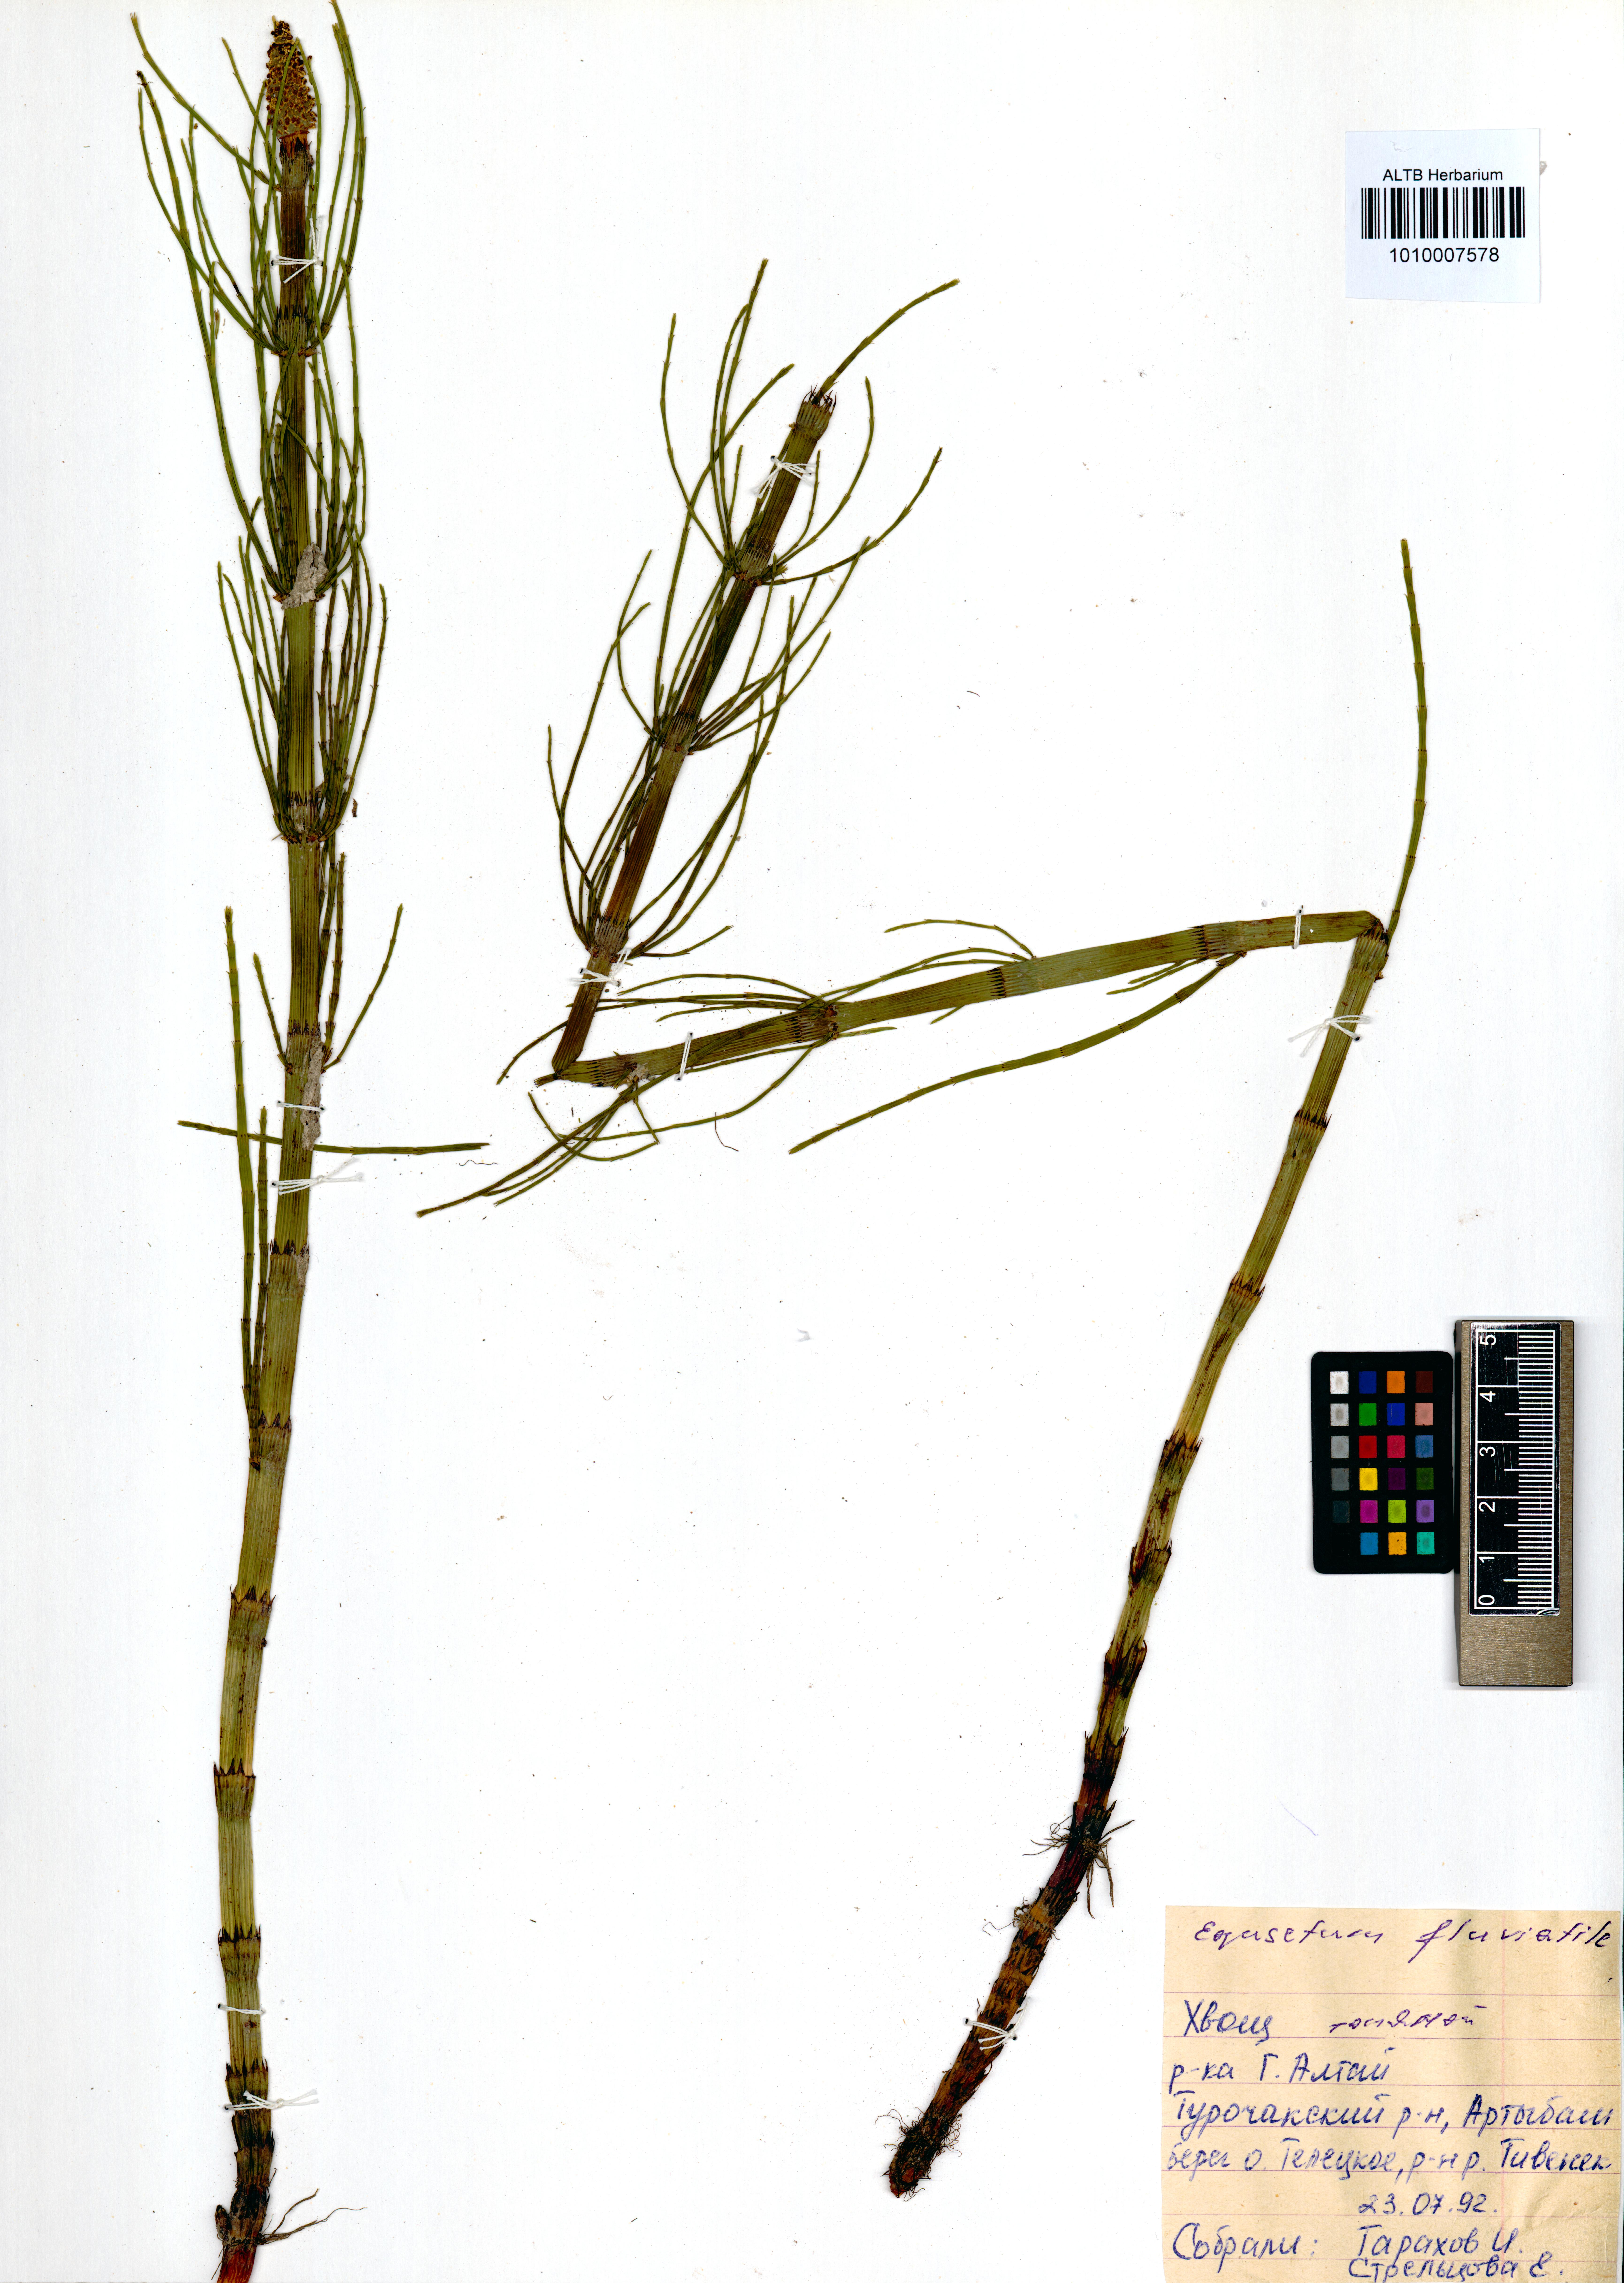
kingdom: Plantae
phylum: Tracheophyta
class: Polypodiopsida
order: Equisetales
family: Equisetaceae
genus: Equisetum
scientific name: Equisetum fluviatile
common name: Water horsetail
